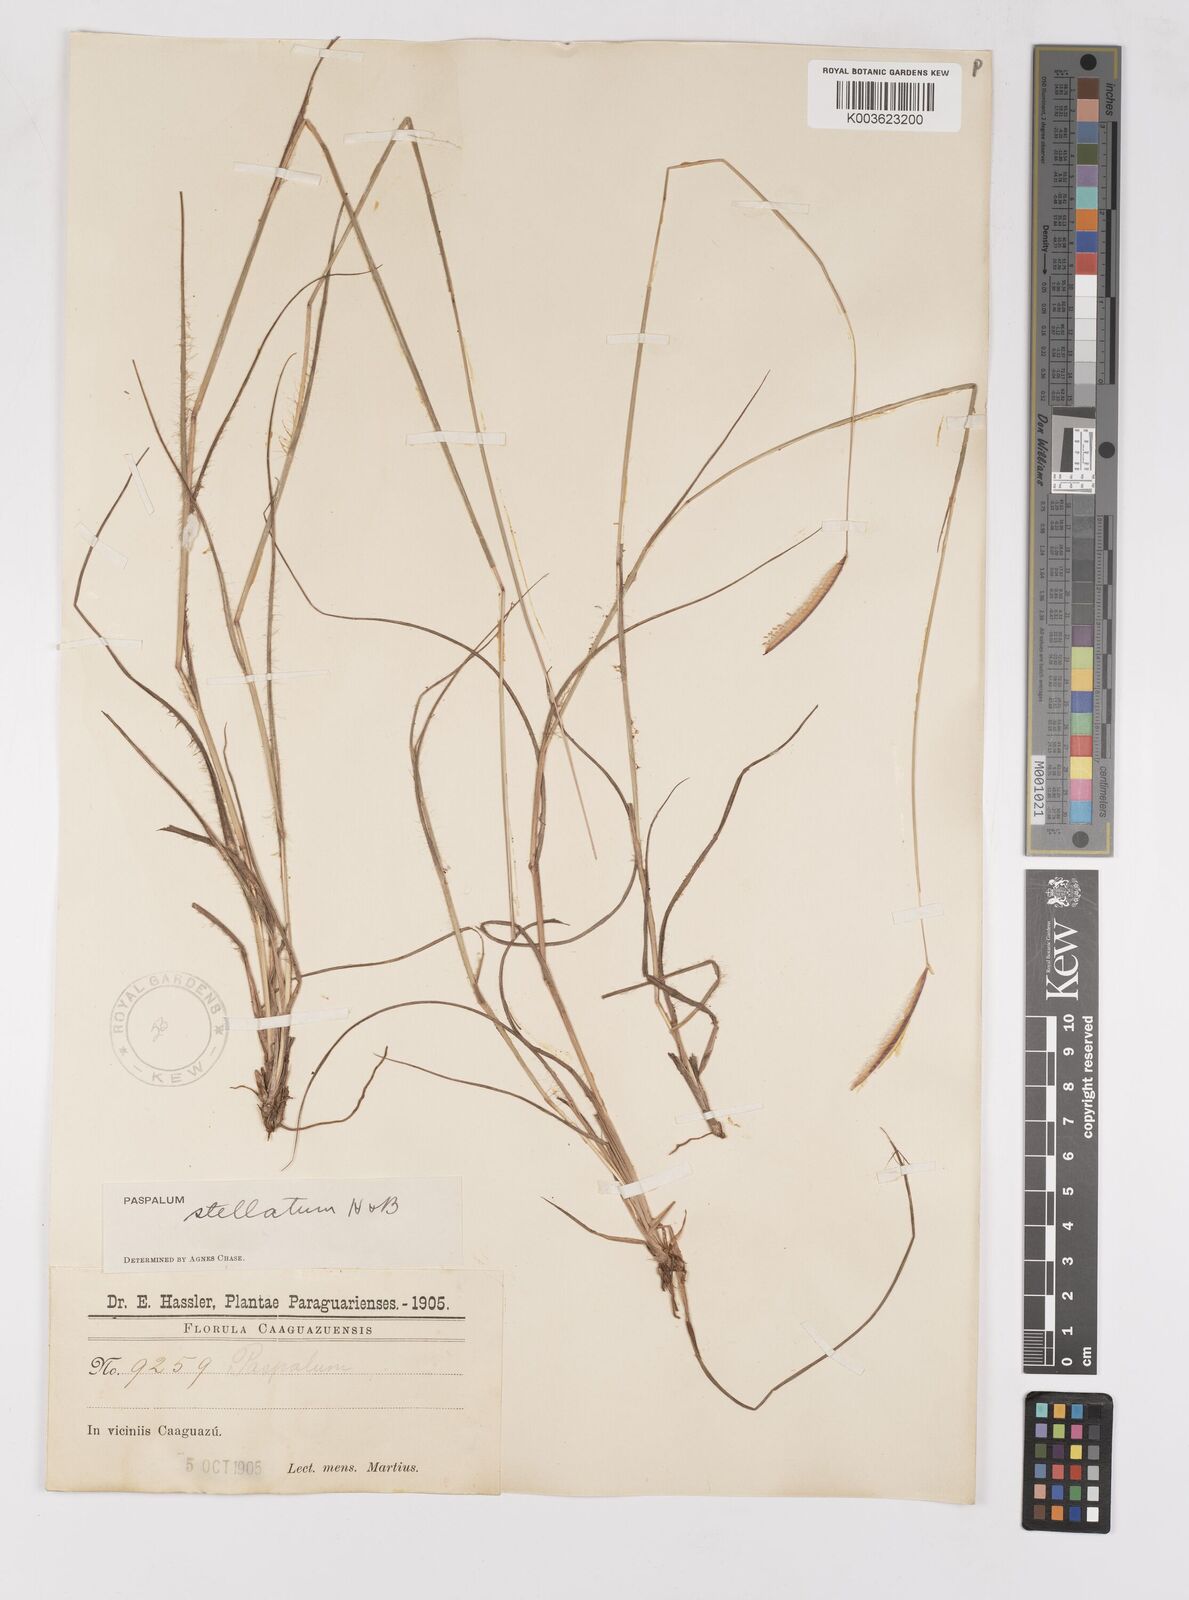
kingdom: Plantae
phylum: Tracheophyta
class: Liliopsida
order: Poales
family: Poaceae
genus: Paspalum
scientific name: Paspalum stellatum
